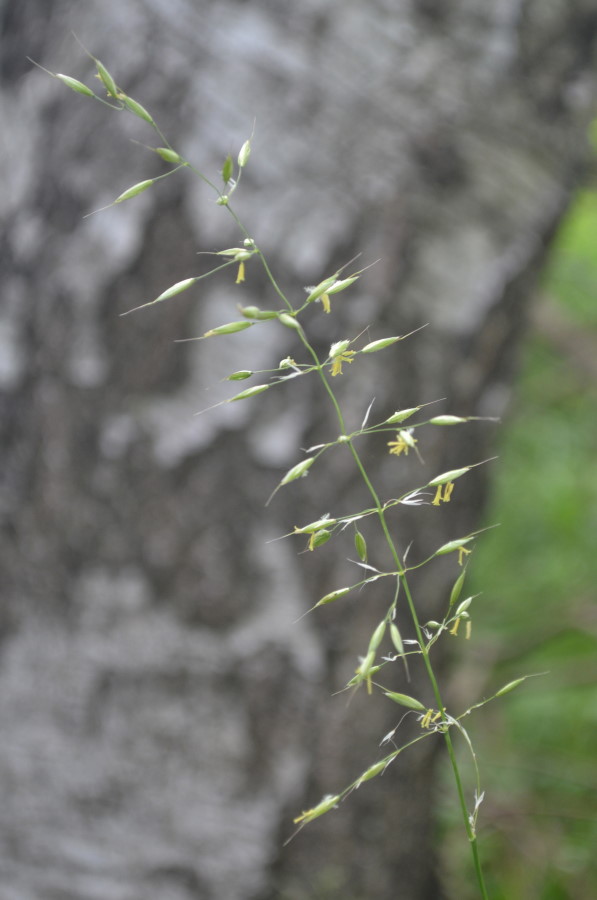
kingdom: Plantae
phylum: Tracheophyta
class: Liliopsida
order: Poales
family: Poaceae
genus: Arrhenatherum
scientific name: Arrhenatherum elatius
